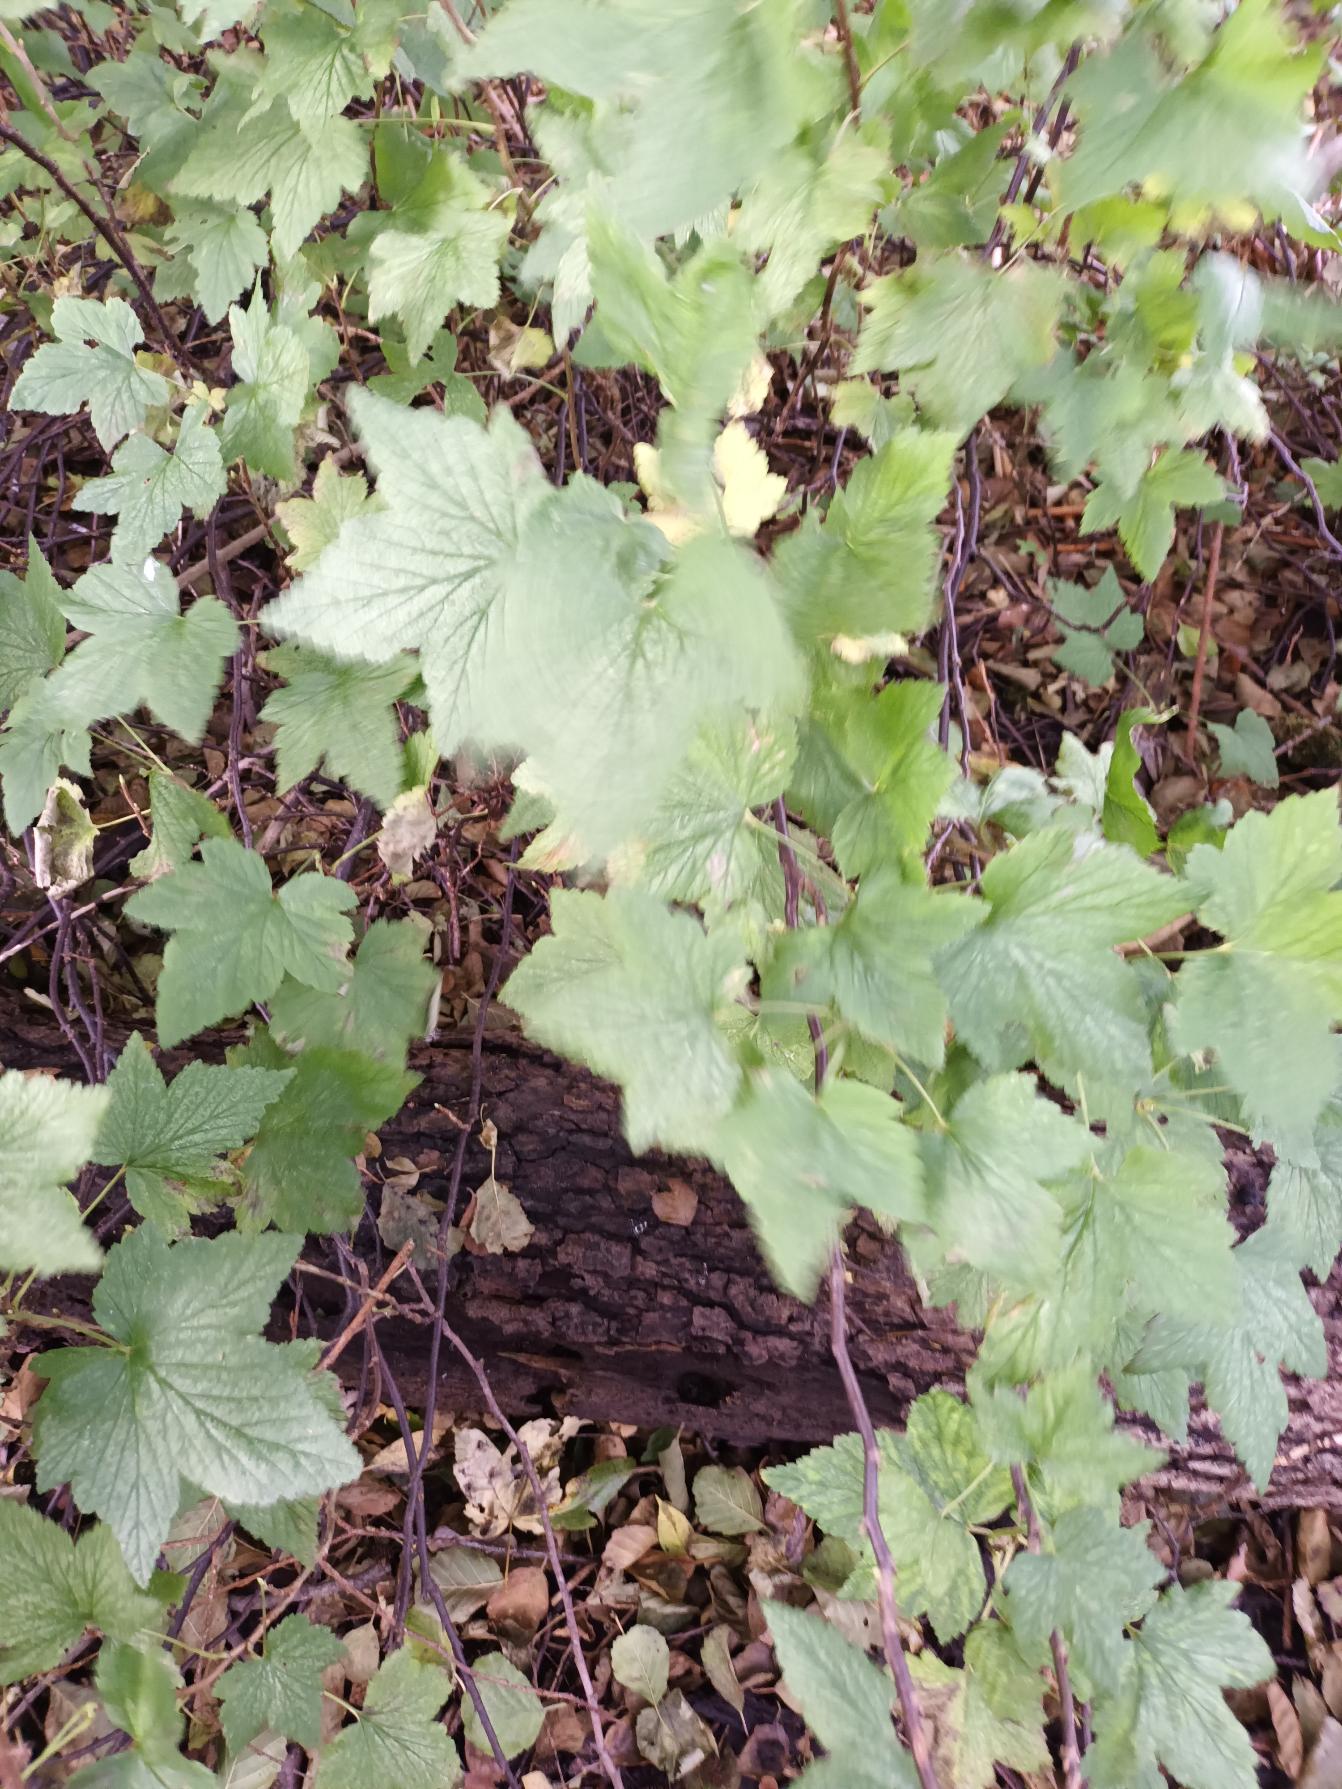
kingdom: Plantae
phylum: Tracheophyta
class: Magnoliopsida
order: Saxifragales
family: Grossulariaceae
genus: Ribes
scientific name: Ribes nigrum
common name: Solbær
